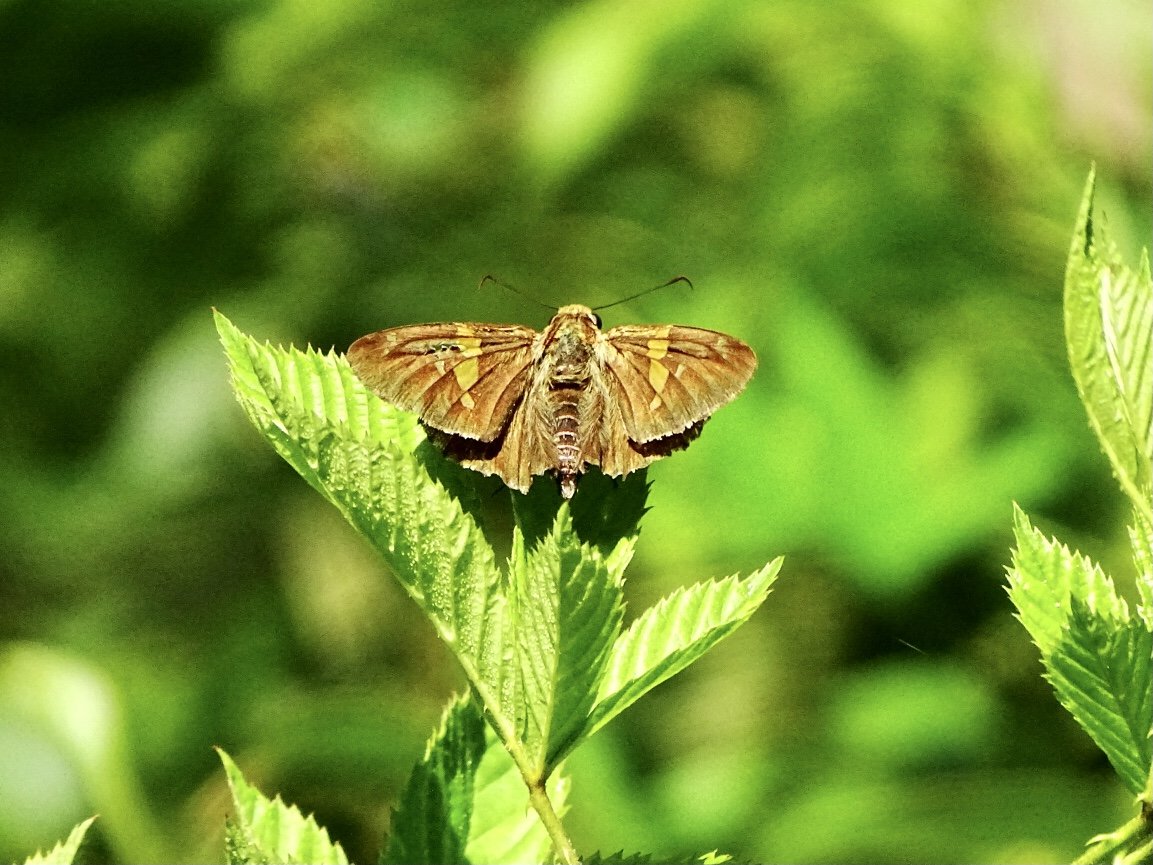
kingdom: Animalia
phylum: Arthropoda
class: Insecta
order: Lepidoptera
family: Hesperiidae
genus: Epargyreus
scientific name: Epargyreus clarus
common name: Silver-spotted Skipper
